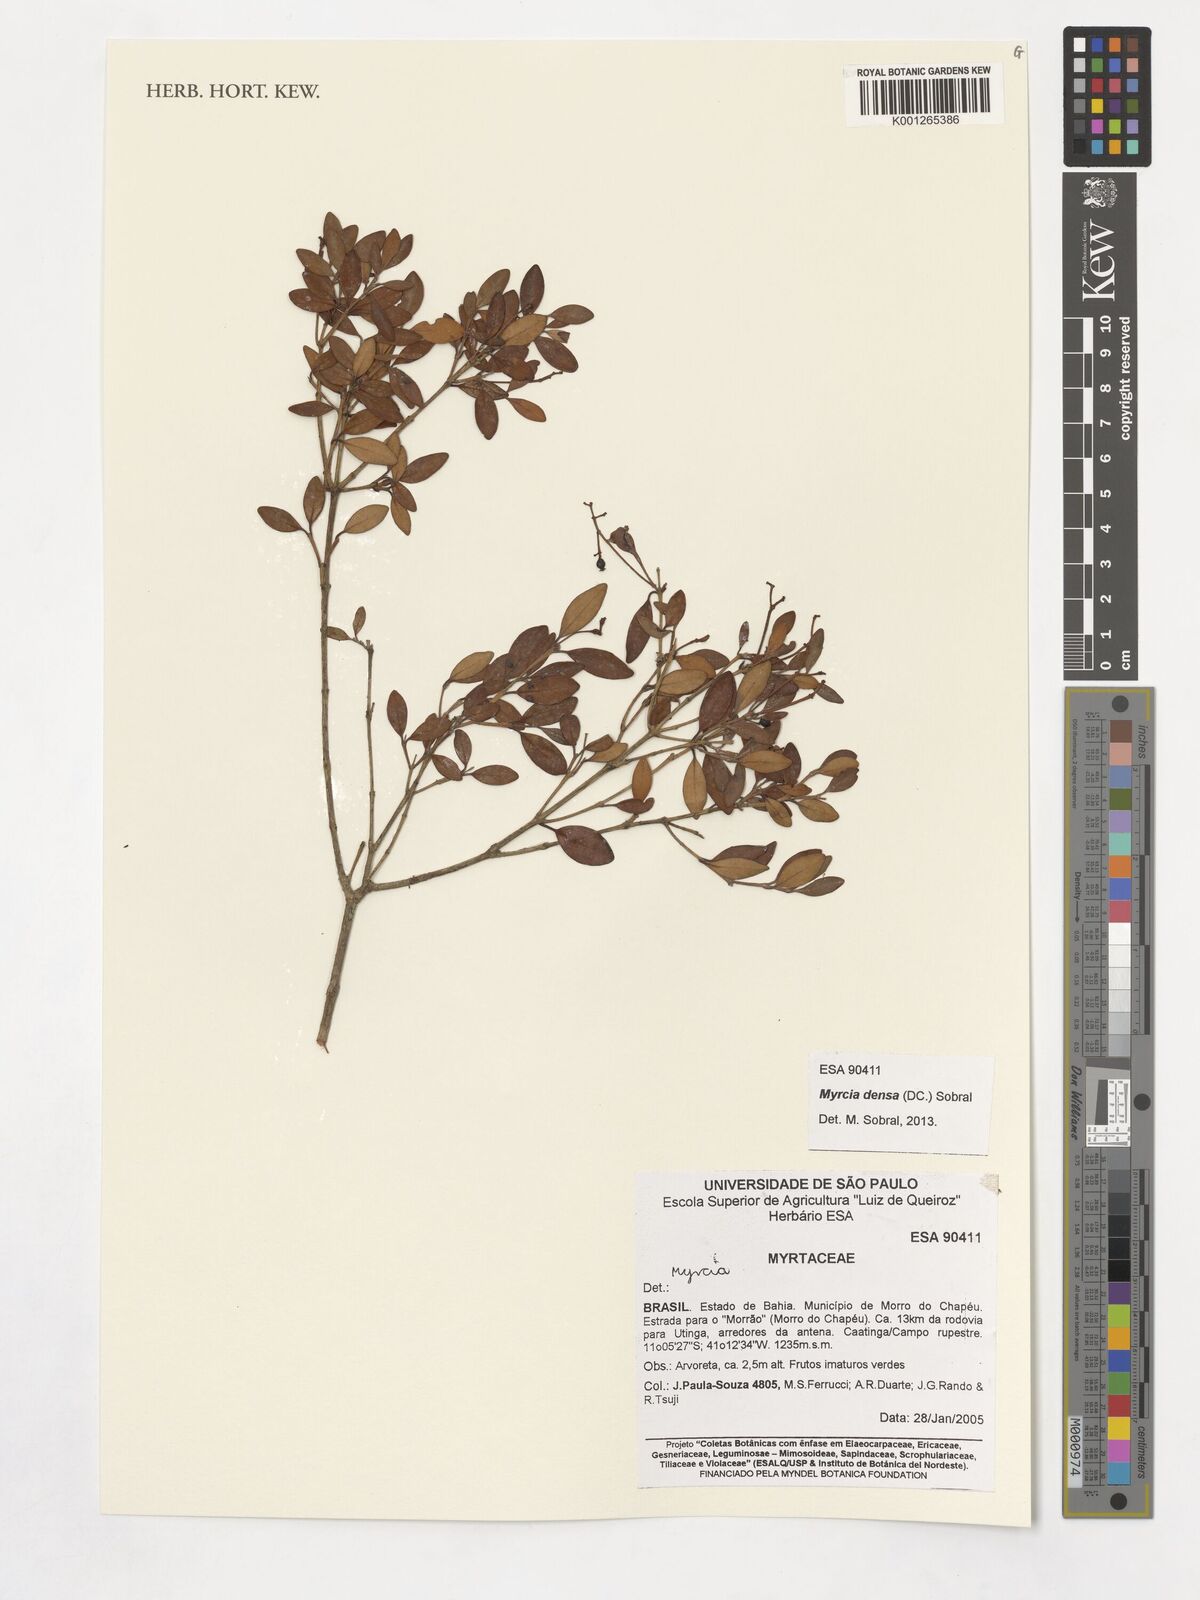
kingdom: Plantae
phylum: Tracheophyta
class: Magnoliopsida
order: Myrtales
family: Myrtaceae
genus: Myrcia
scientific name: Myrcia densa
